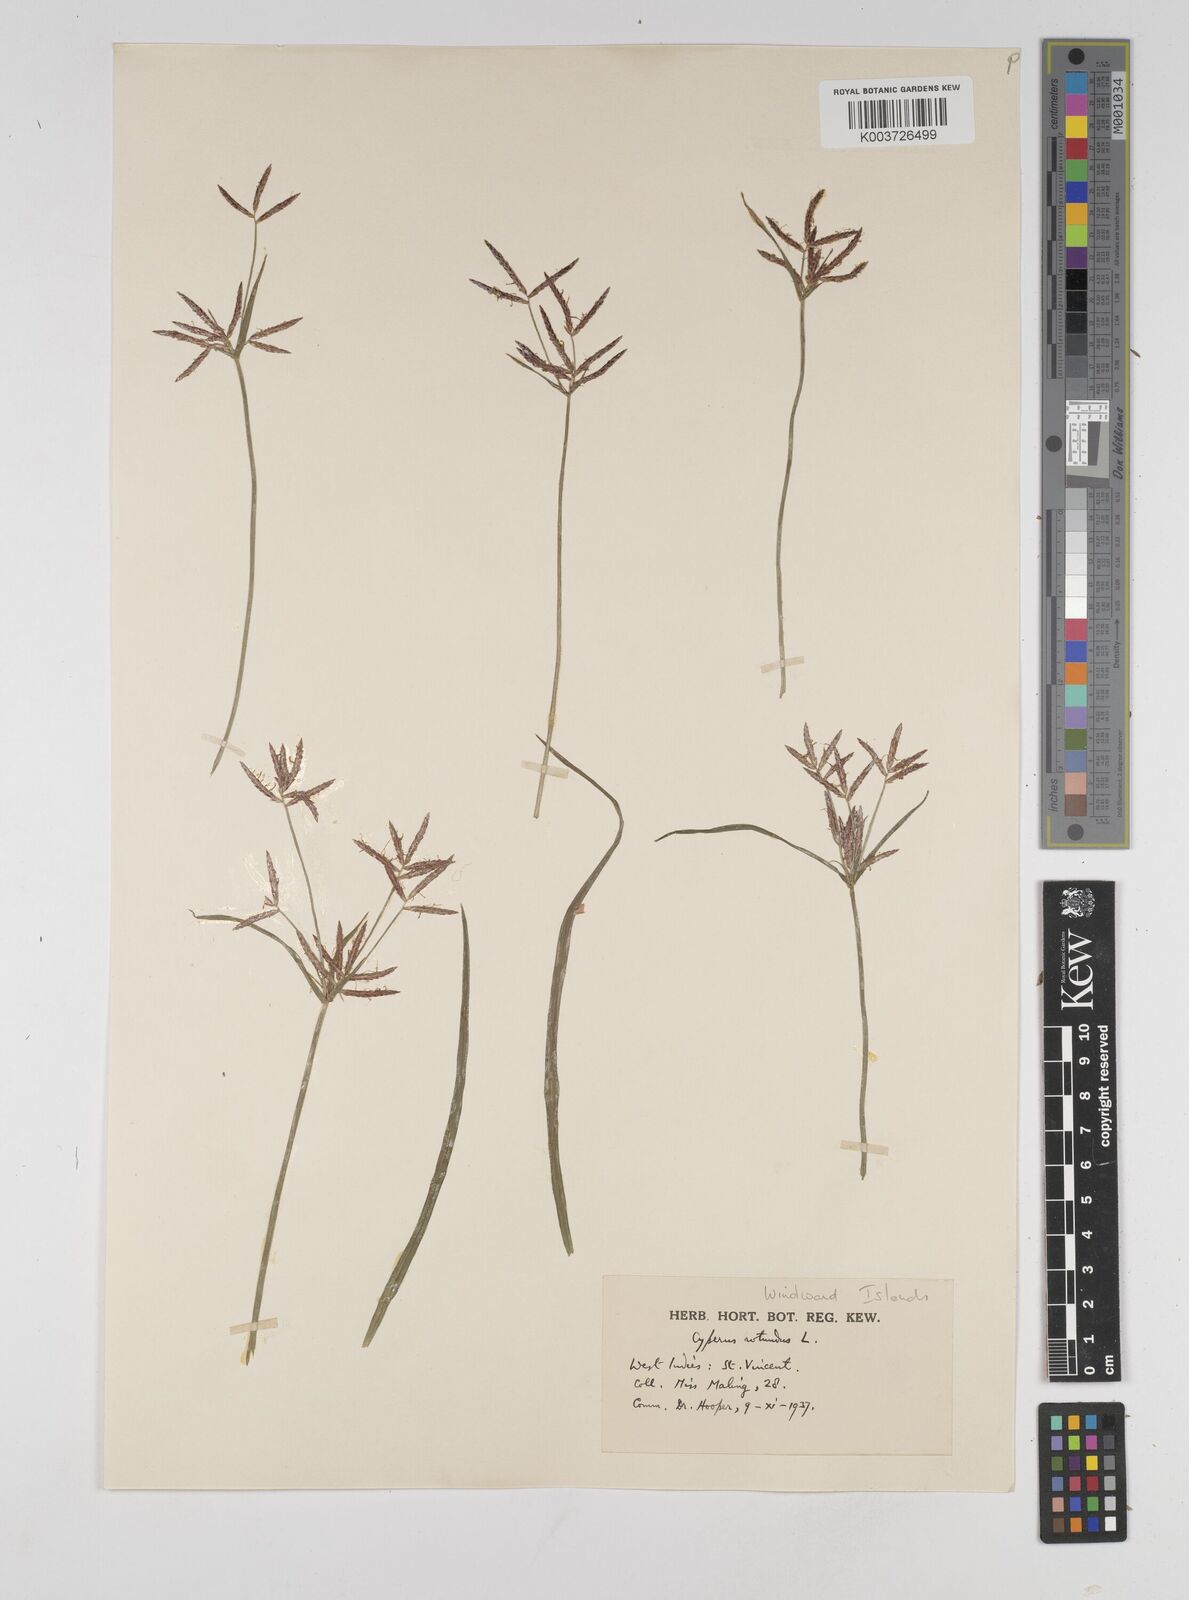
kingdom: Plantae
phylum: Tracheophyta
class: Liliopsida
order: Poales
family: Cyperaceae
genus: Cyperus
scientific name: Cyperus rotundus
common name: Nutgrass
